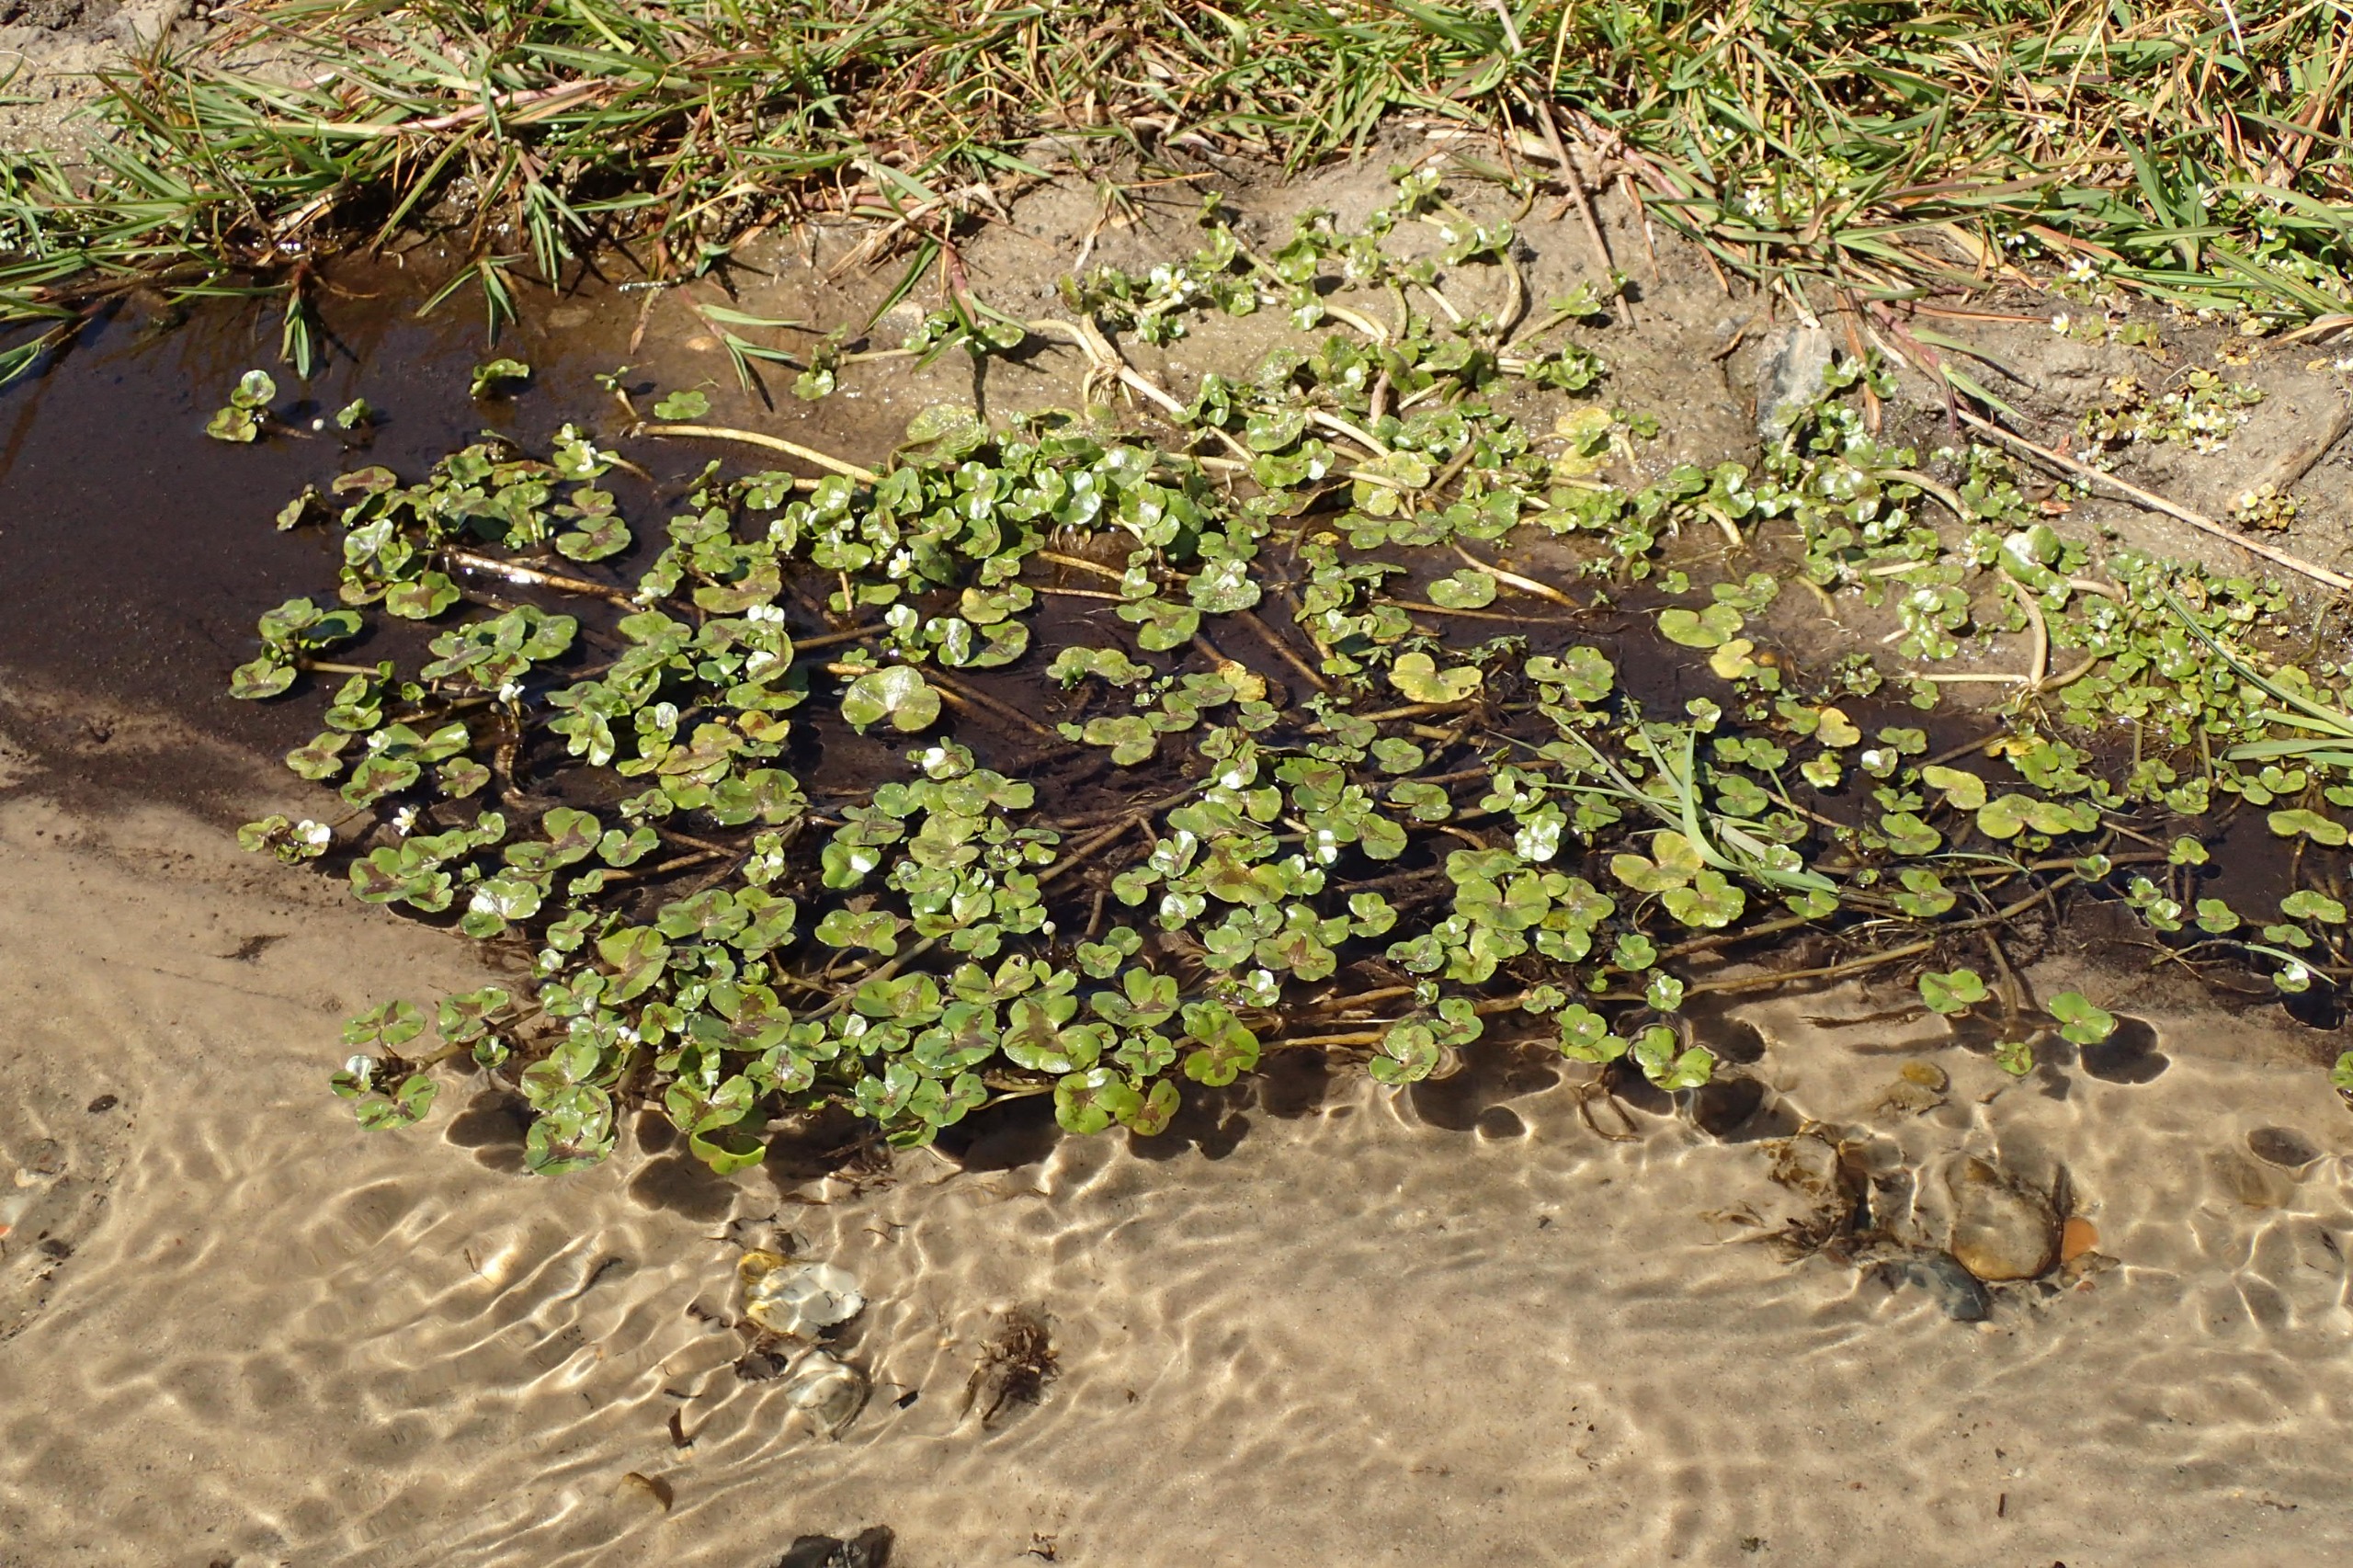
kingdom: Plantae
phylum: Tracheophyta
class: Magnoliopsida
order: Ranunculales
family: Ranunculaceae
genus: Ranunculus
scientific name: Ranunculus hederaceus
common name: Vedbend-vandranunkel
